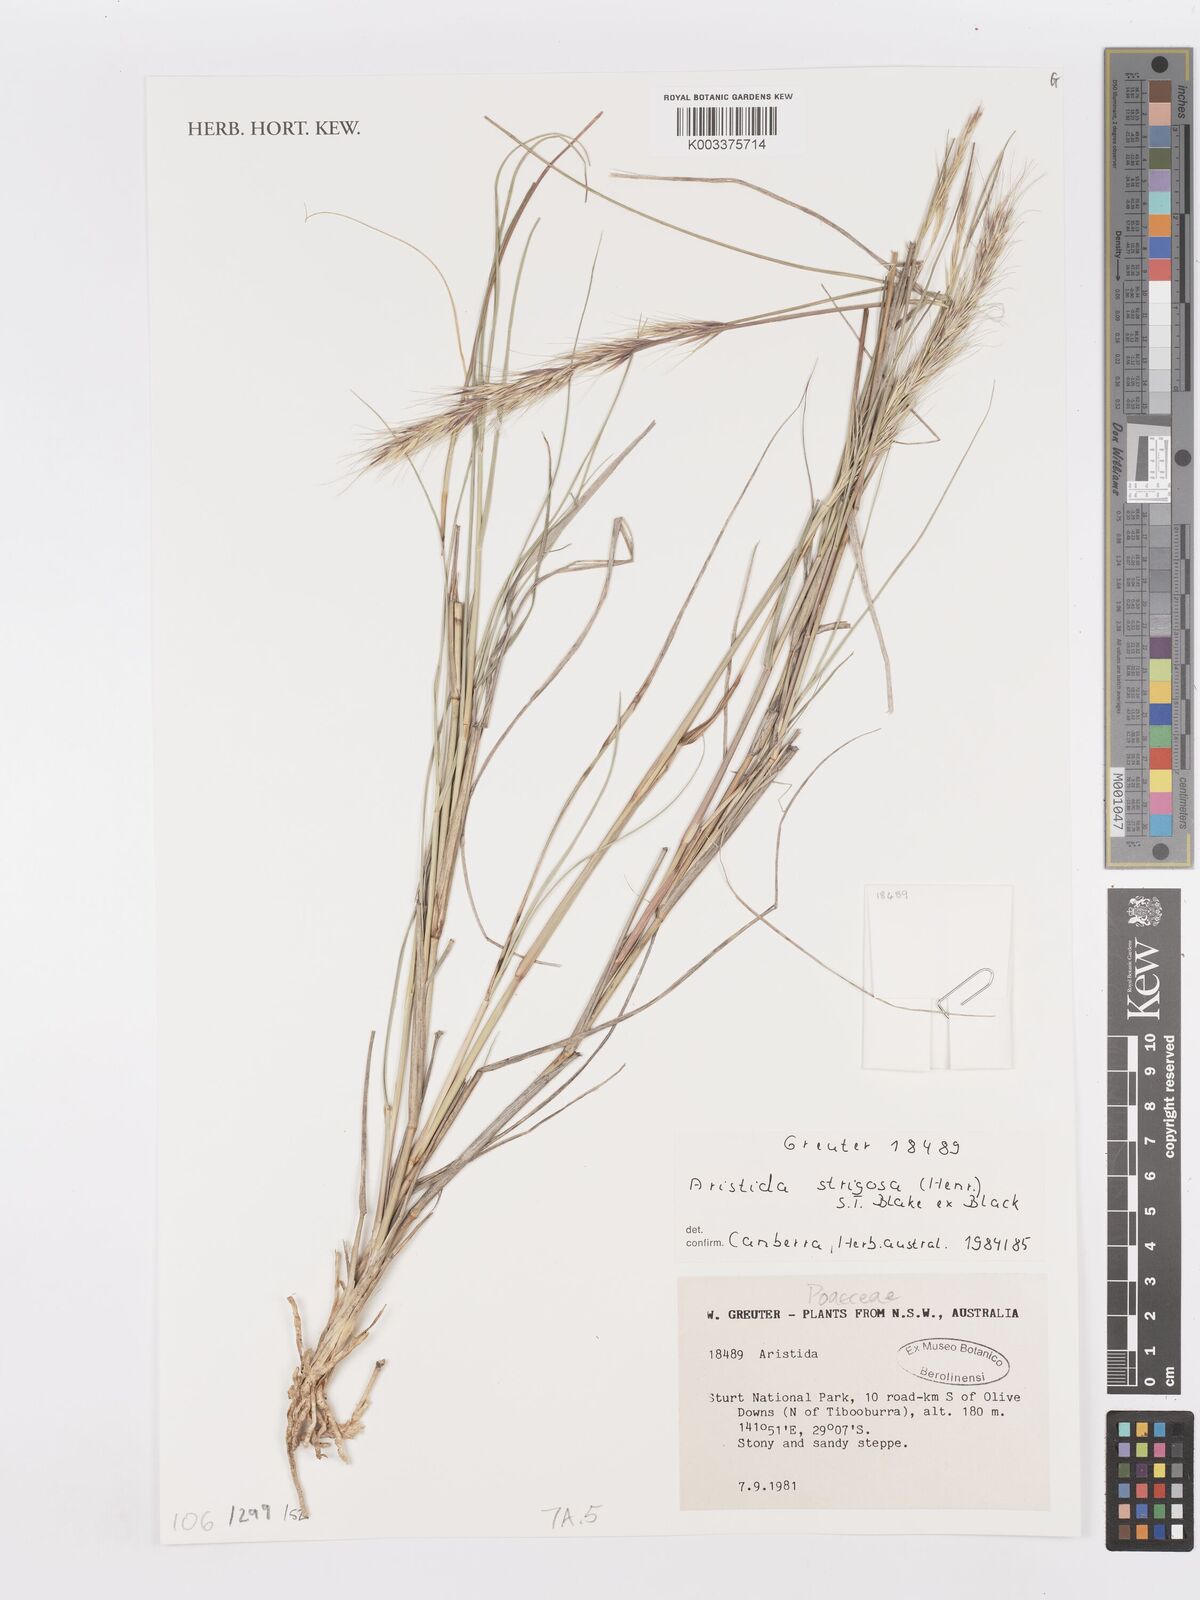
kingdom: Plantae
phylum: Tracheophyta
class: Liliopsida
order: Poales
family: Poaceae
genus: Aristida
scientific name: Aristida strigosa
